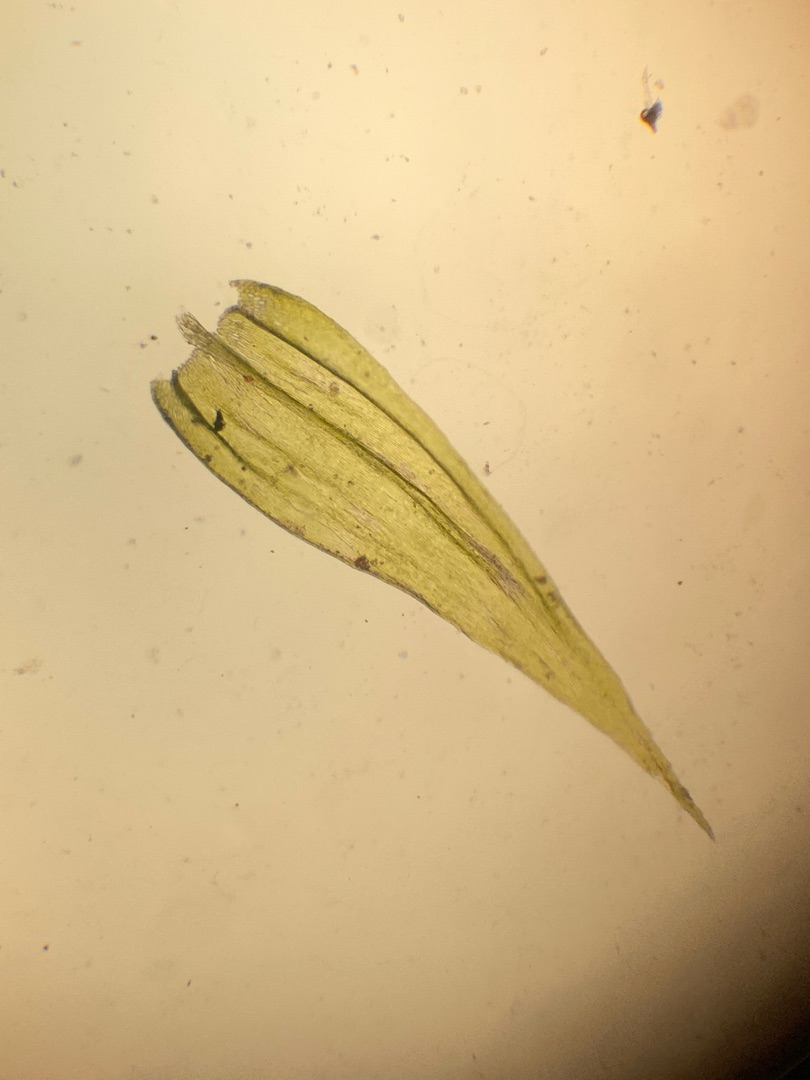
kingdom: Plantae
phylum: Bryophyta
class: Bryopsida
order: Hypnales
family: Brachytheciaceae
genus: Brachythecium
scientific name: Brachythecium salebrosum
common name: Skov-kortkapsel
